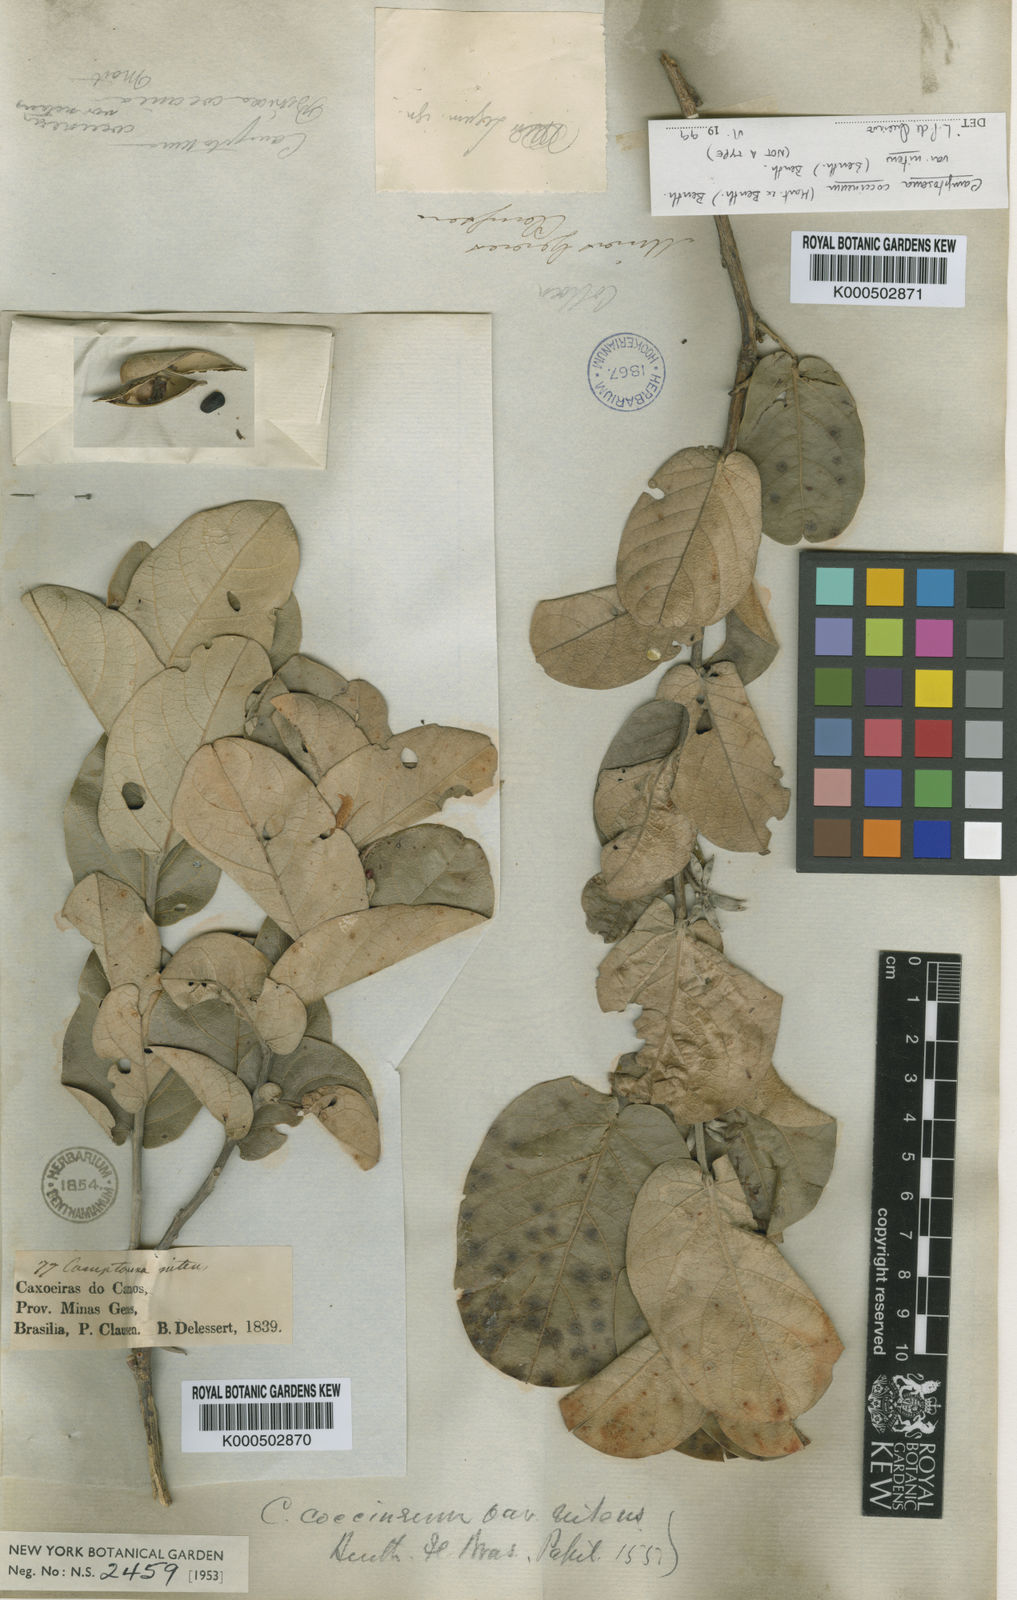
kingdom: Plantae
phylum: Tracheophyta
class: Magnoliopsida
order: Fabales
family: Fabaceae
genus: Camptosema
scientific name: Camptosema coccineum
